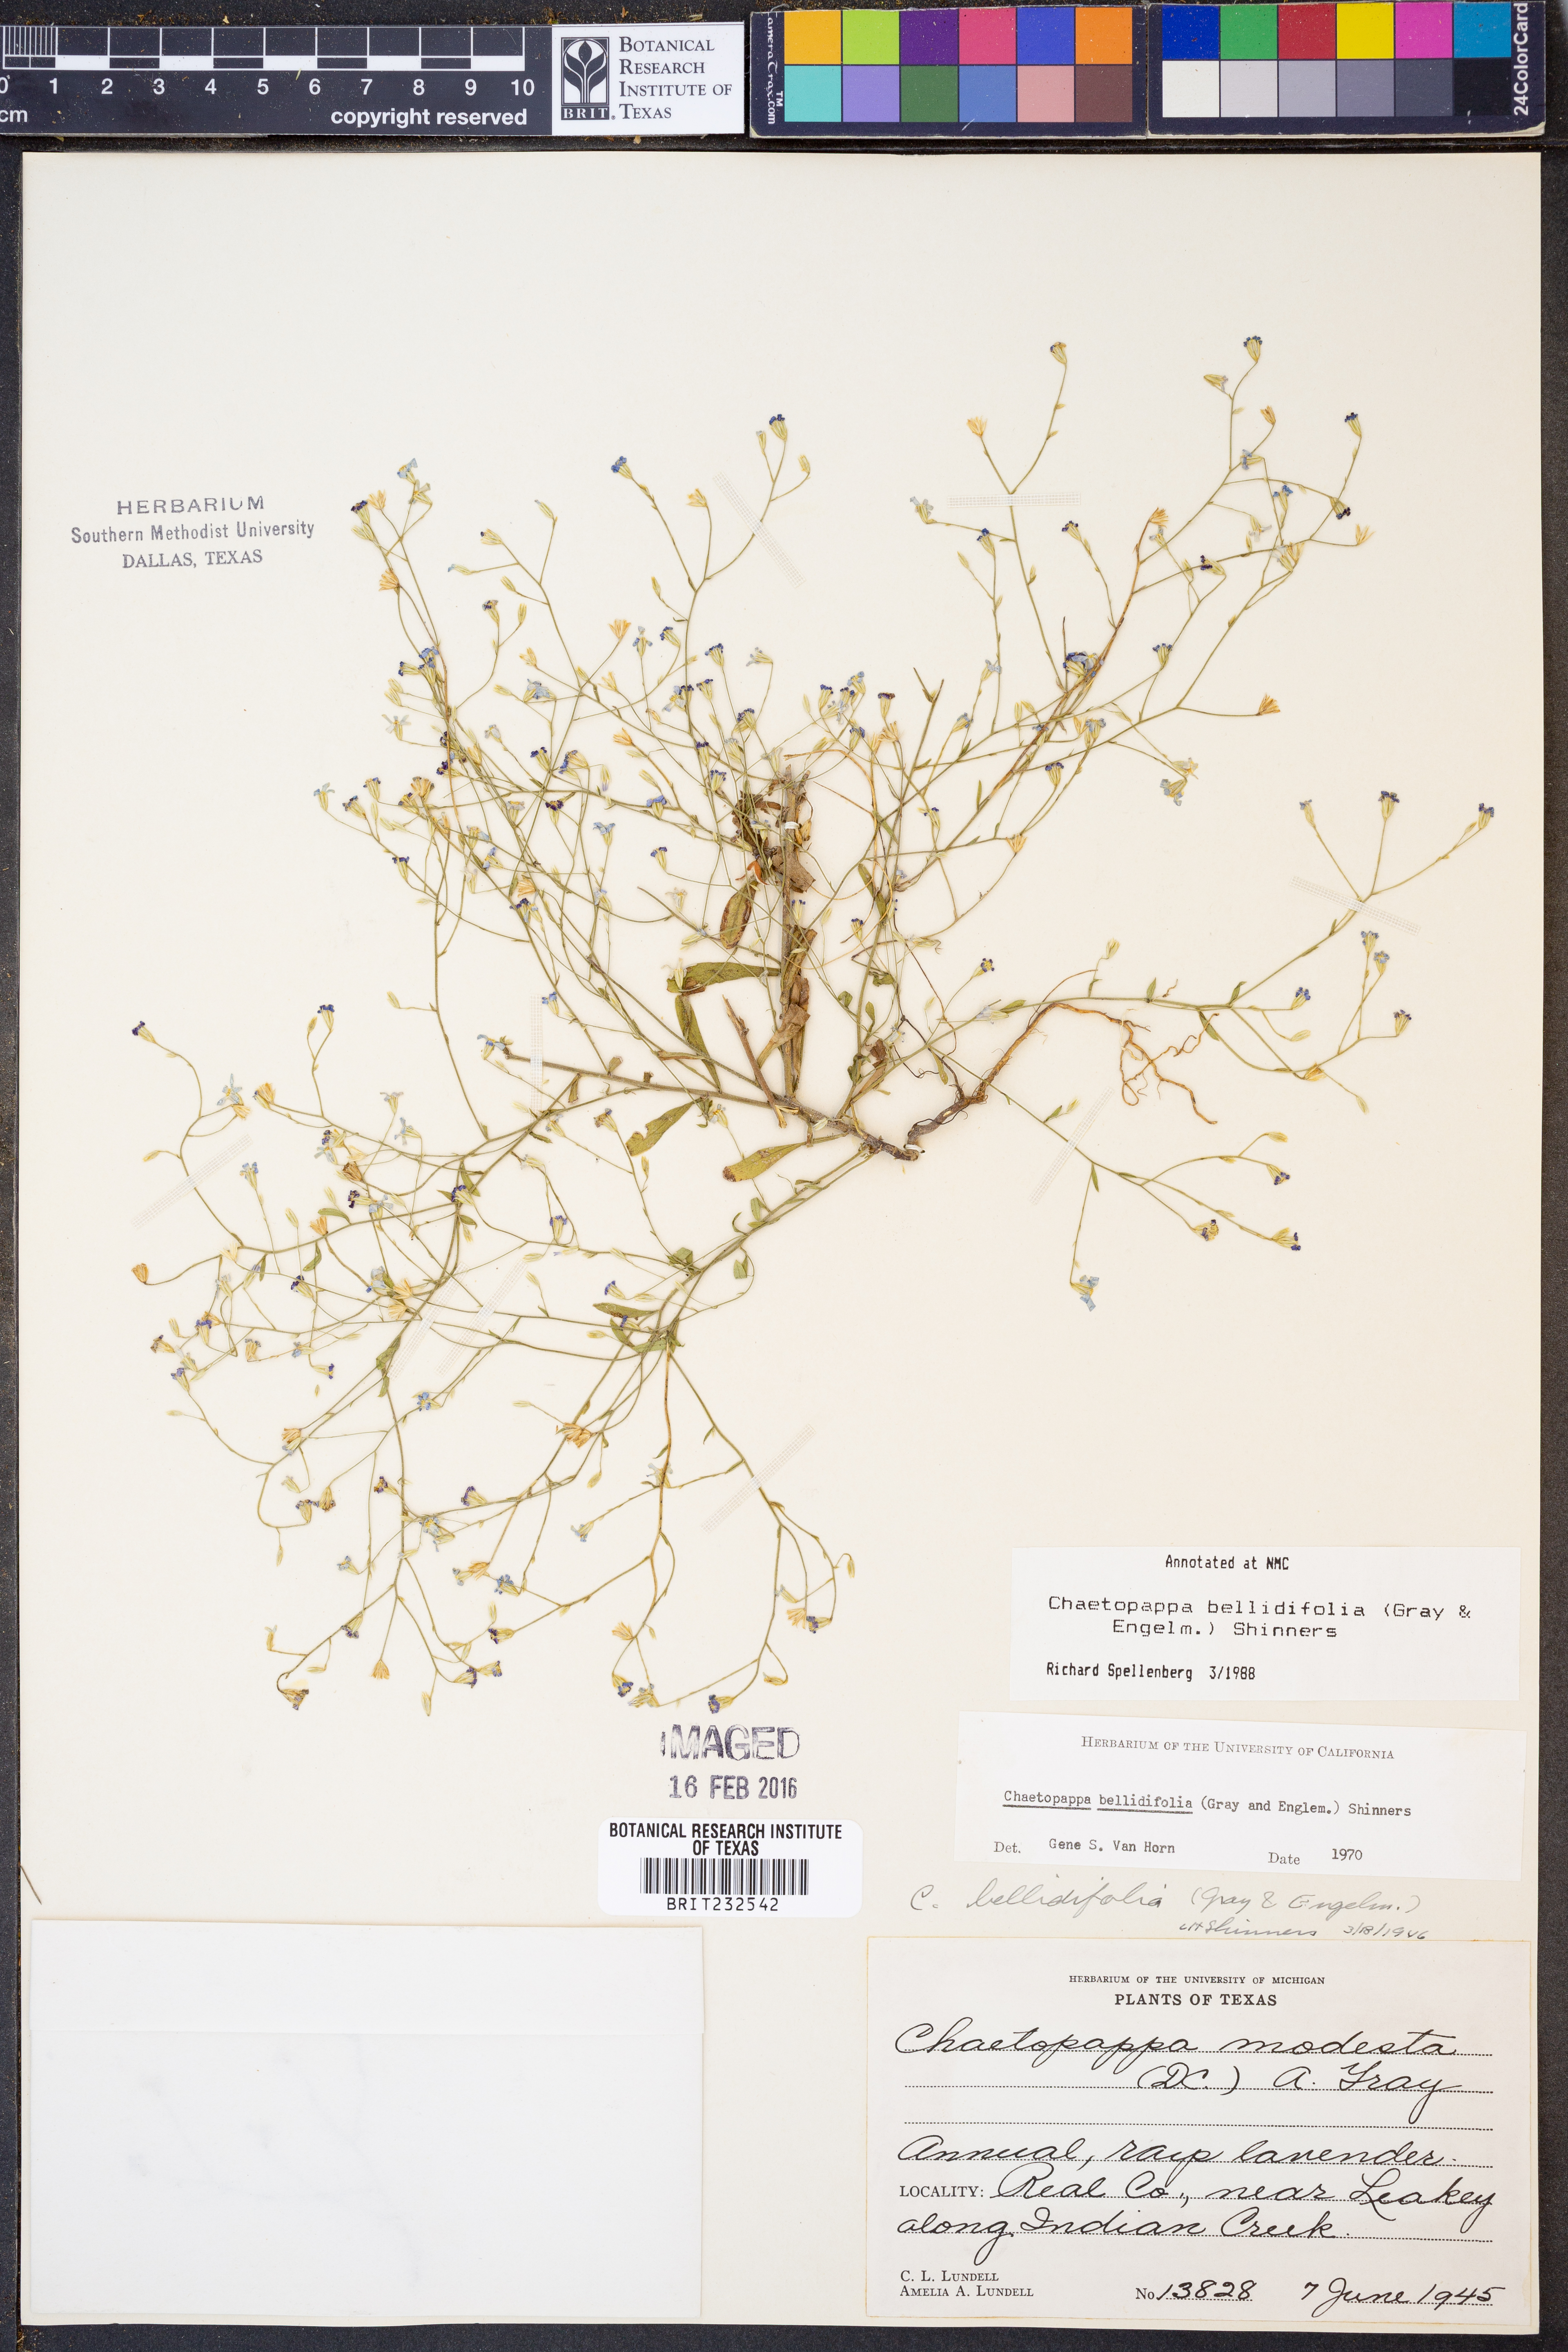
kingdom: Plantae
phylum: Tracheophyta
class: Magnoliopsida
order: Asterales
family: Asteraceae
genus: Chaetopappa
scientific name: Chaetopappa bellidifolia
